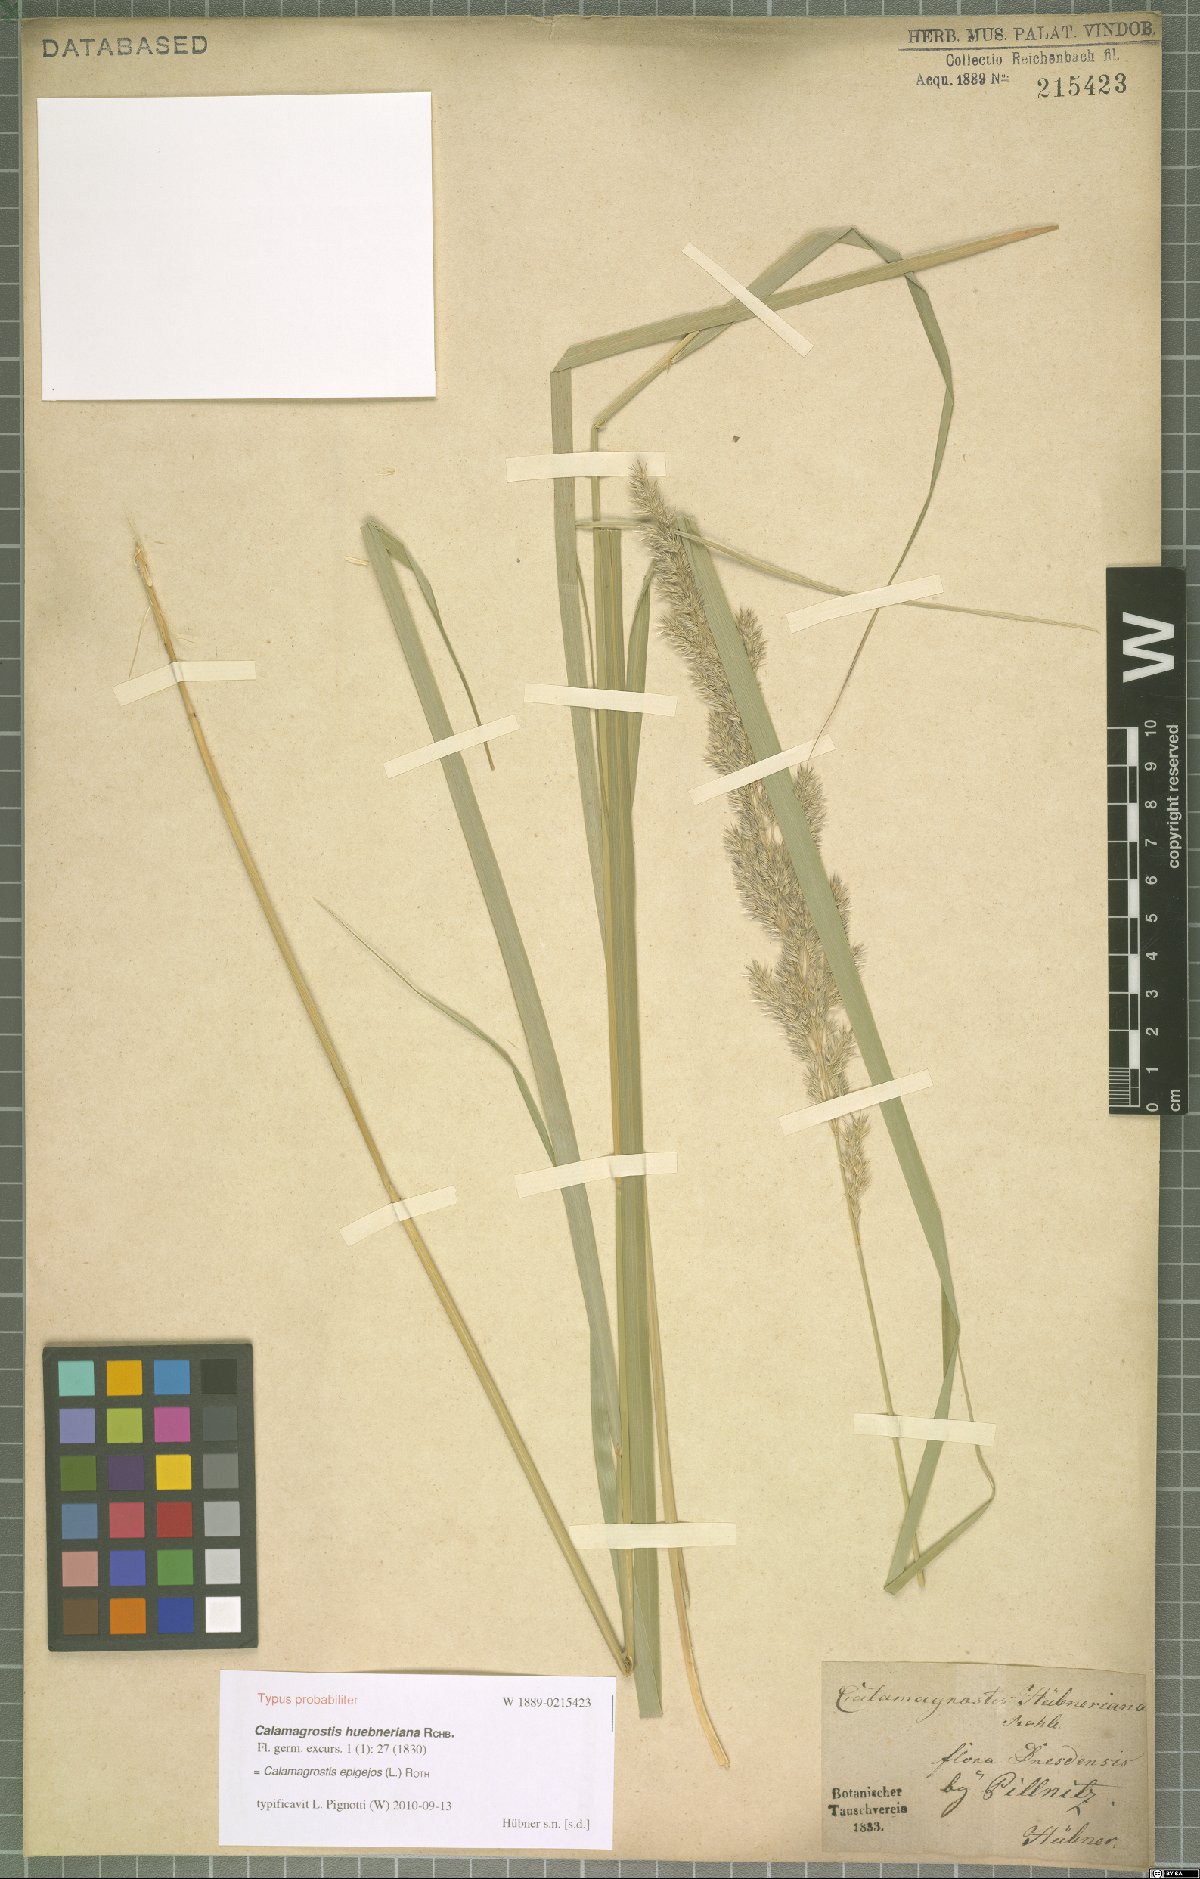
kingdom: Plantae
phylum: Tracheophyta
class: Liliopsida
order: Poales
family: Poaceae
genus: Calamagrostis
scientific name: Calamagrostis epigejos
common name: Wood small-reed
